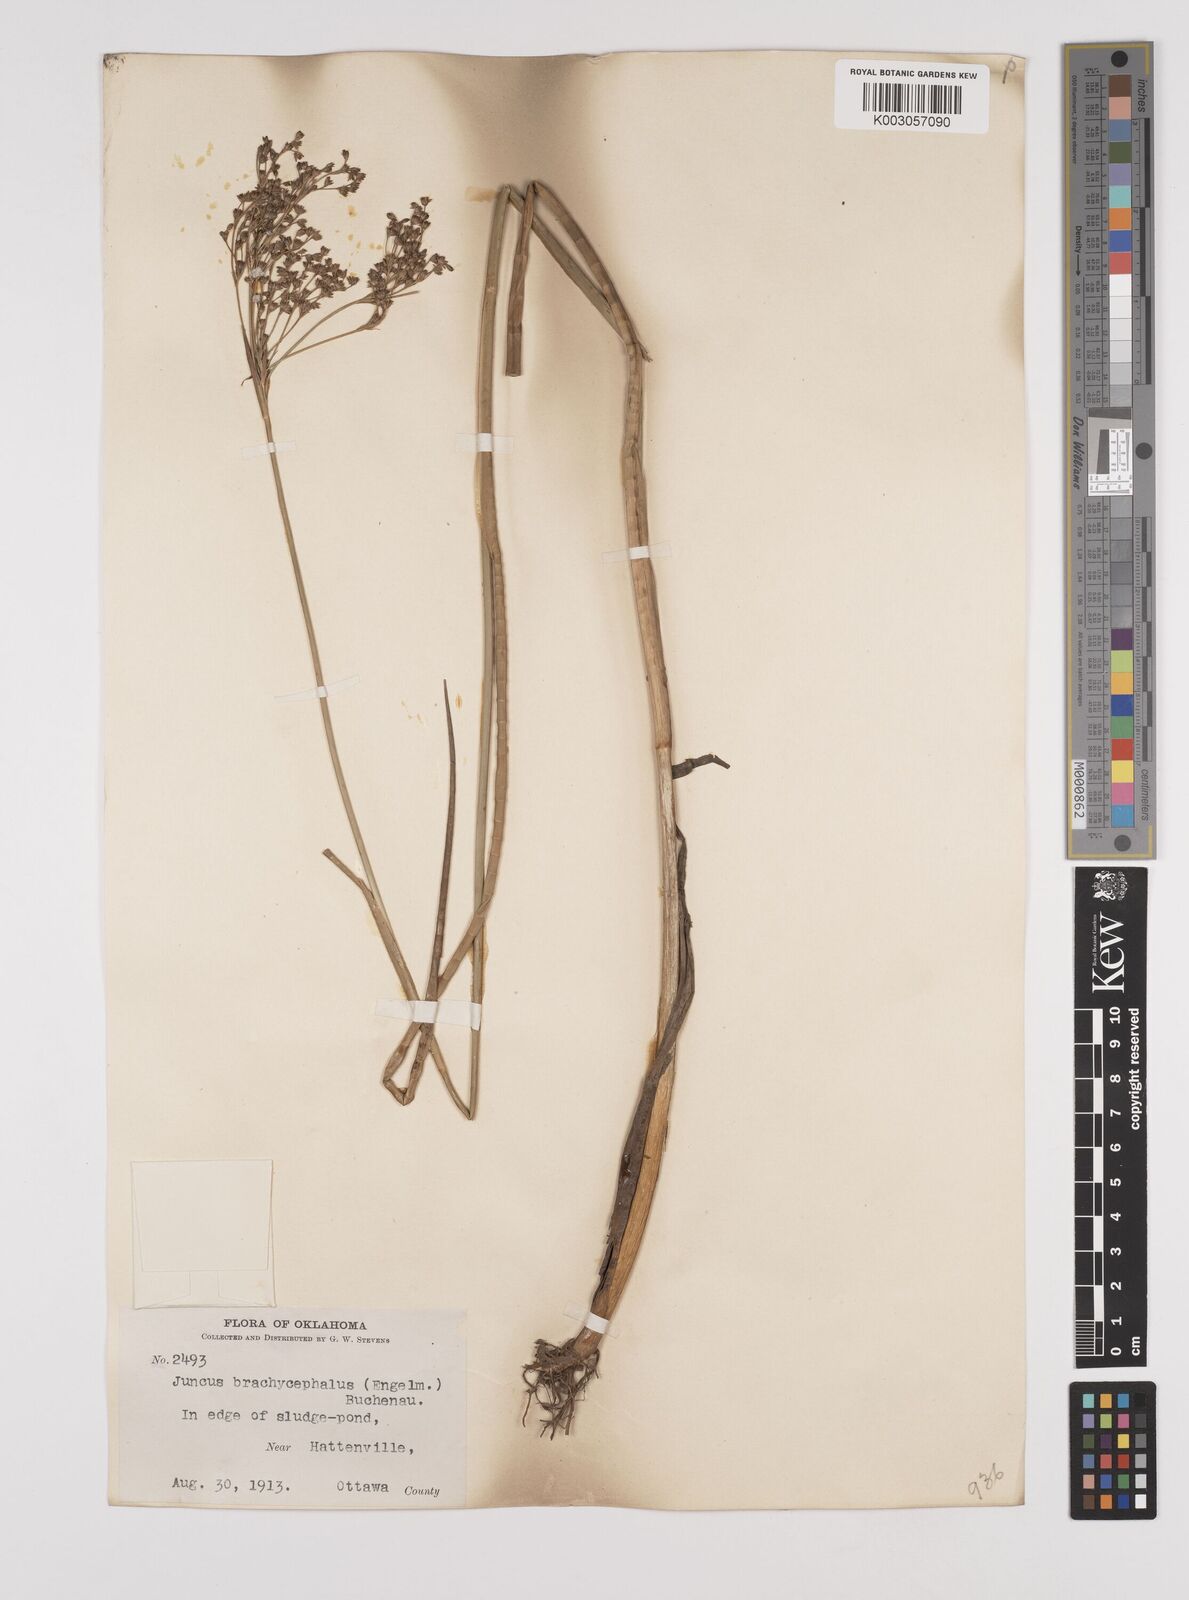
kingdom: Plantae
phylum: Tracheophyta
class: Liliopsida
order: Poales
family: Juncaceae
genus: Juncus
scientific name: Juncus canadensis
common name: Canada rush
